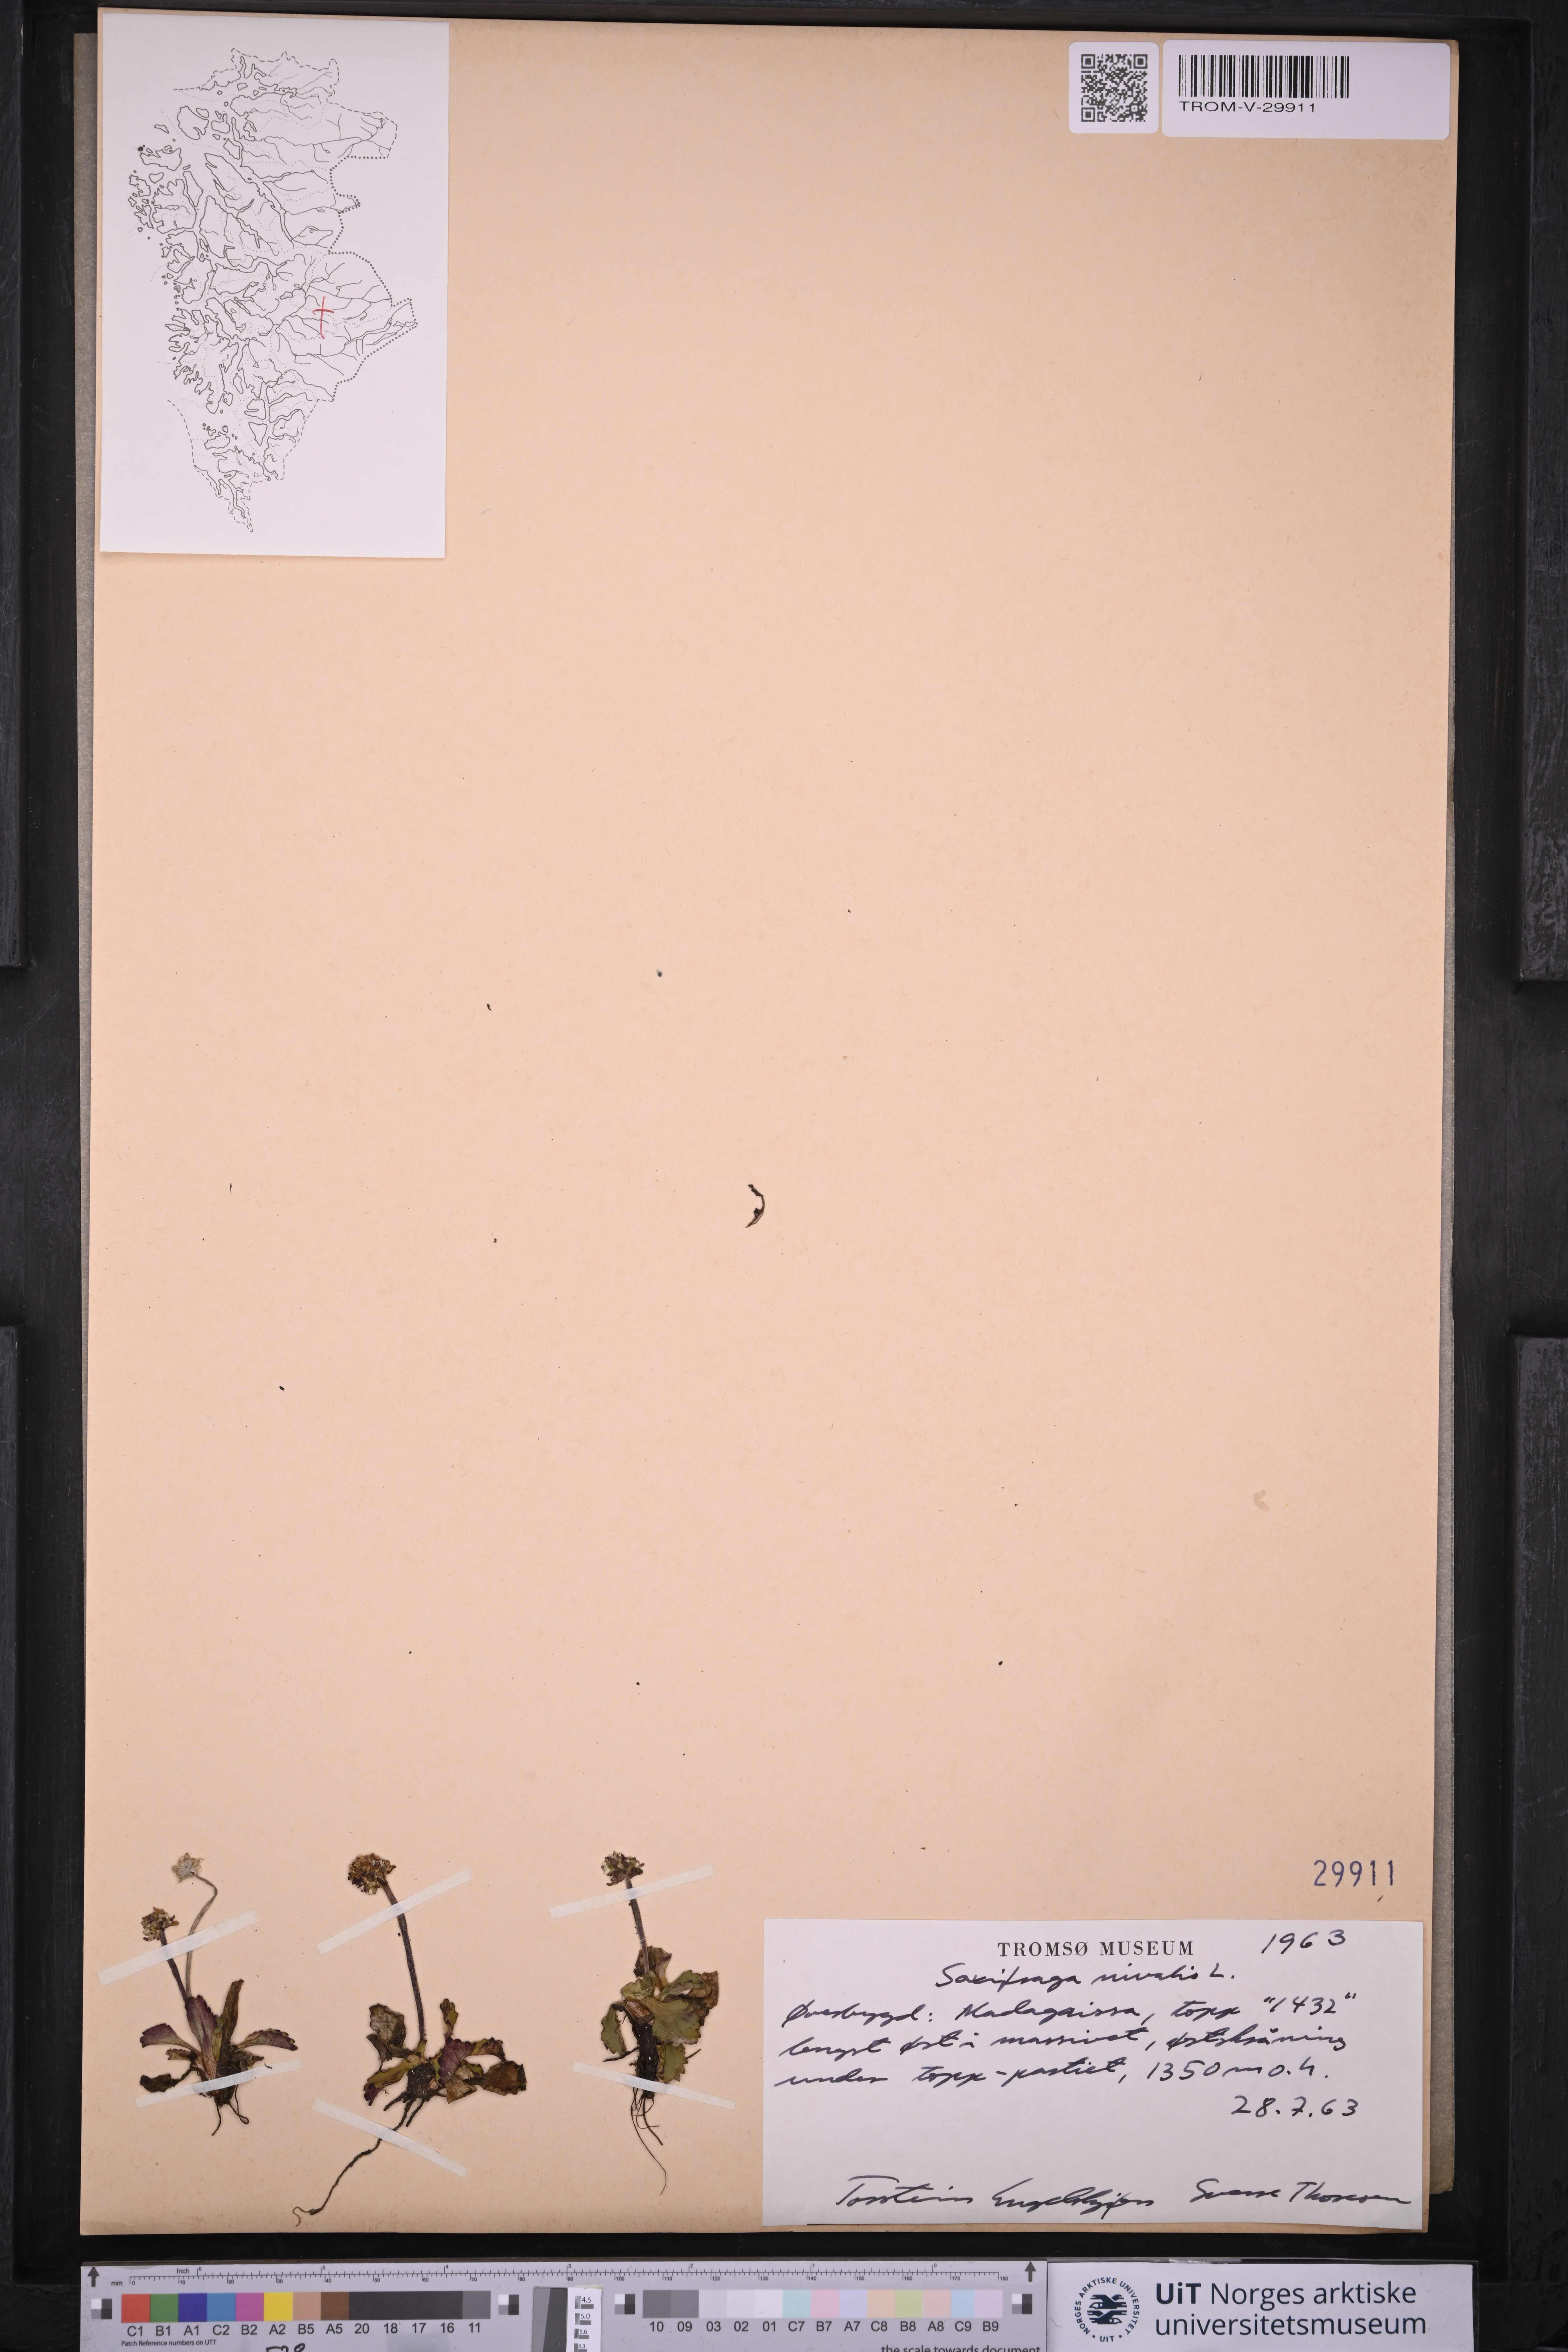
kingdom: Plantae
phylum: Tracheophyta
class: Magnoliopsida
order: Saxifragales
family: Saxifragaceae
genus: Micranthes
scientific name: Micranthes nivalis
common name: Alpine saxifrage
